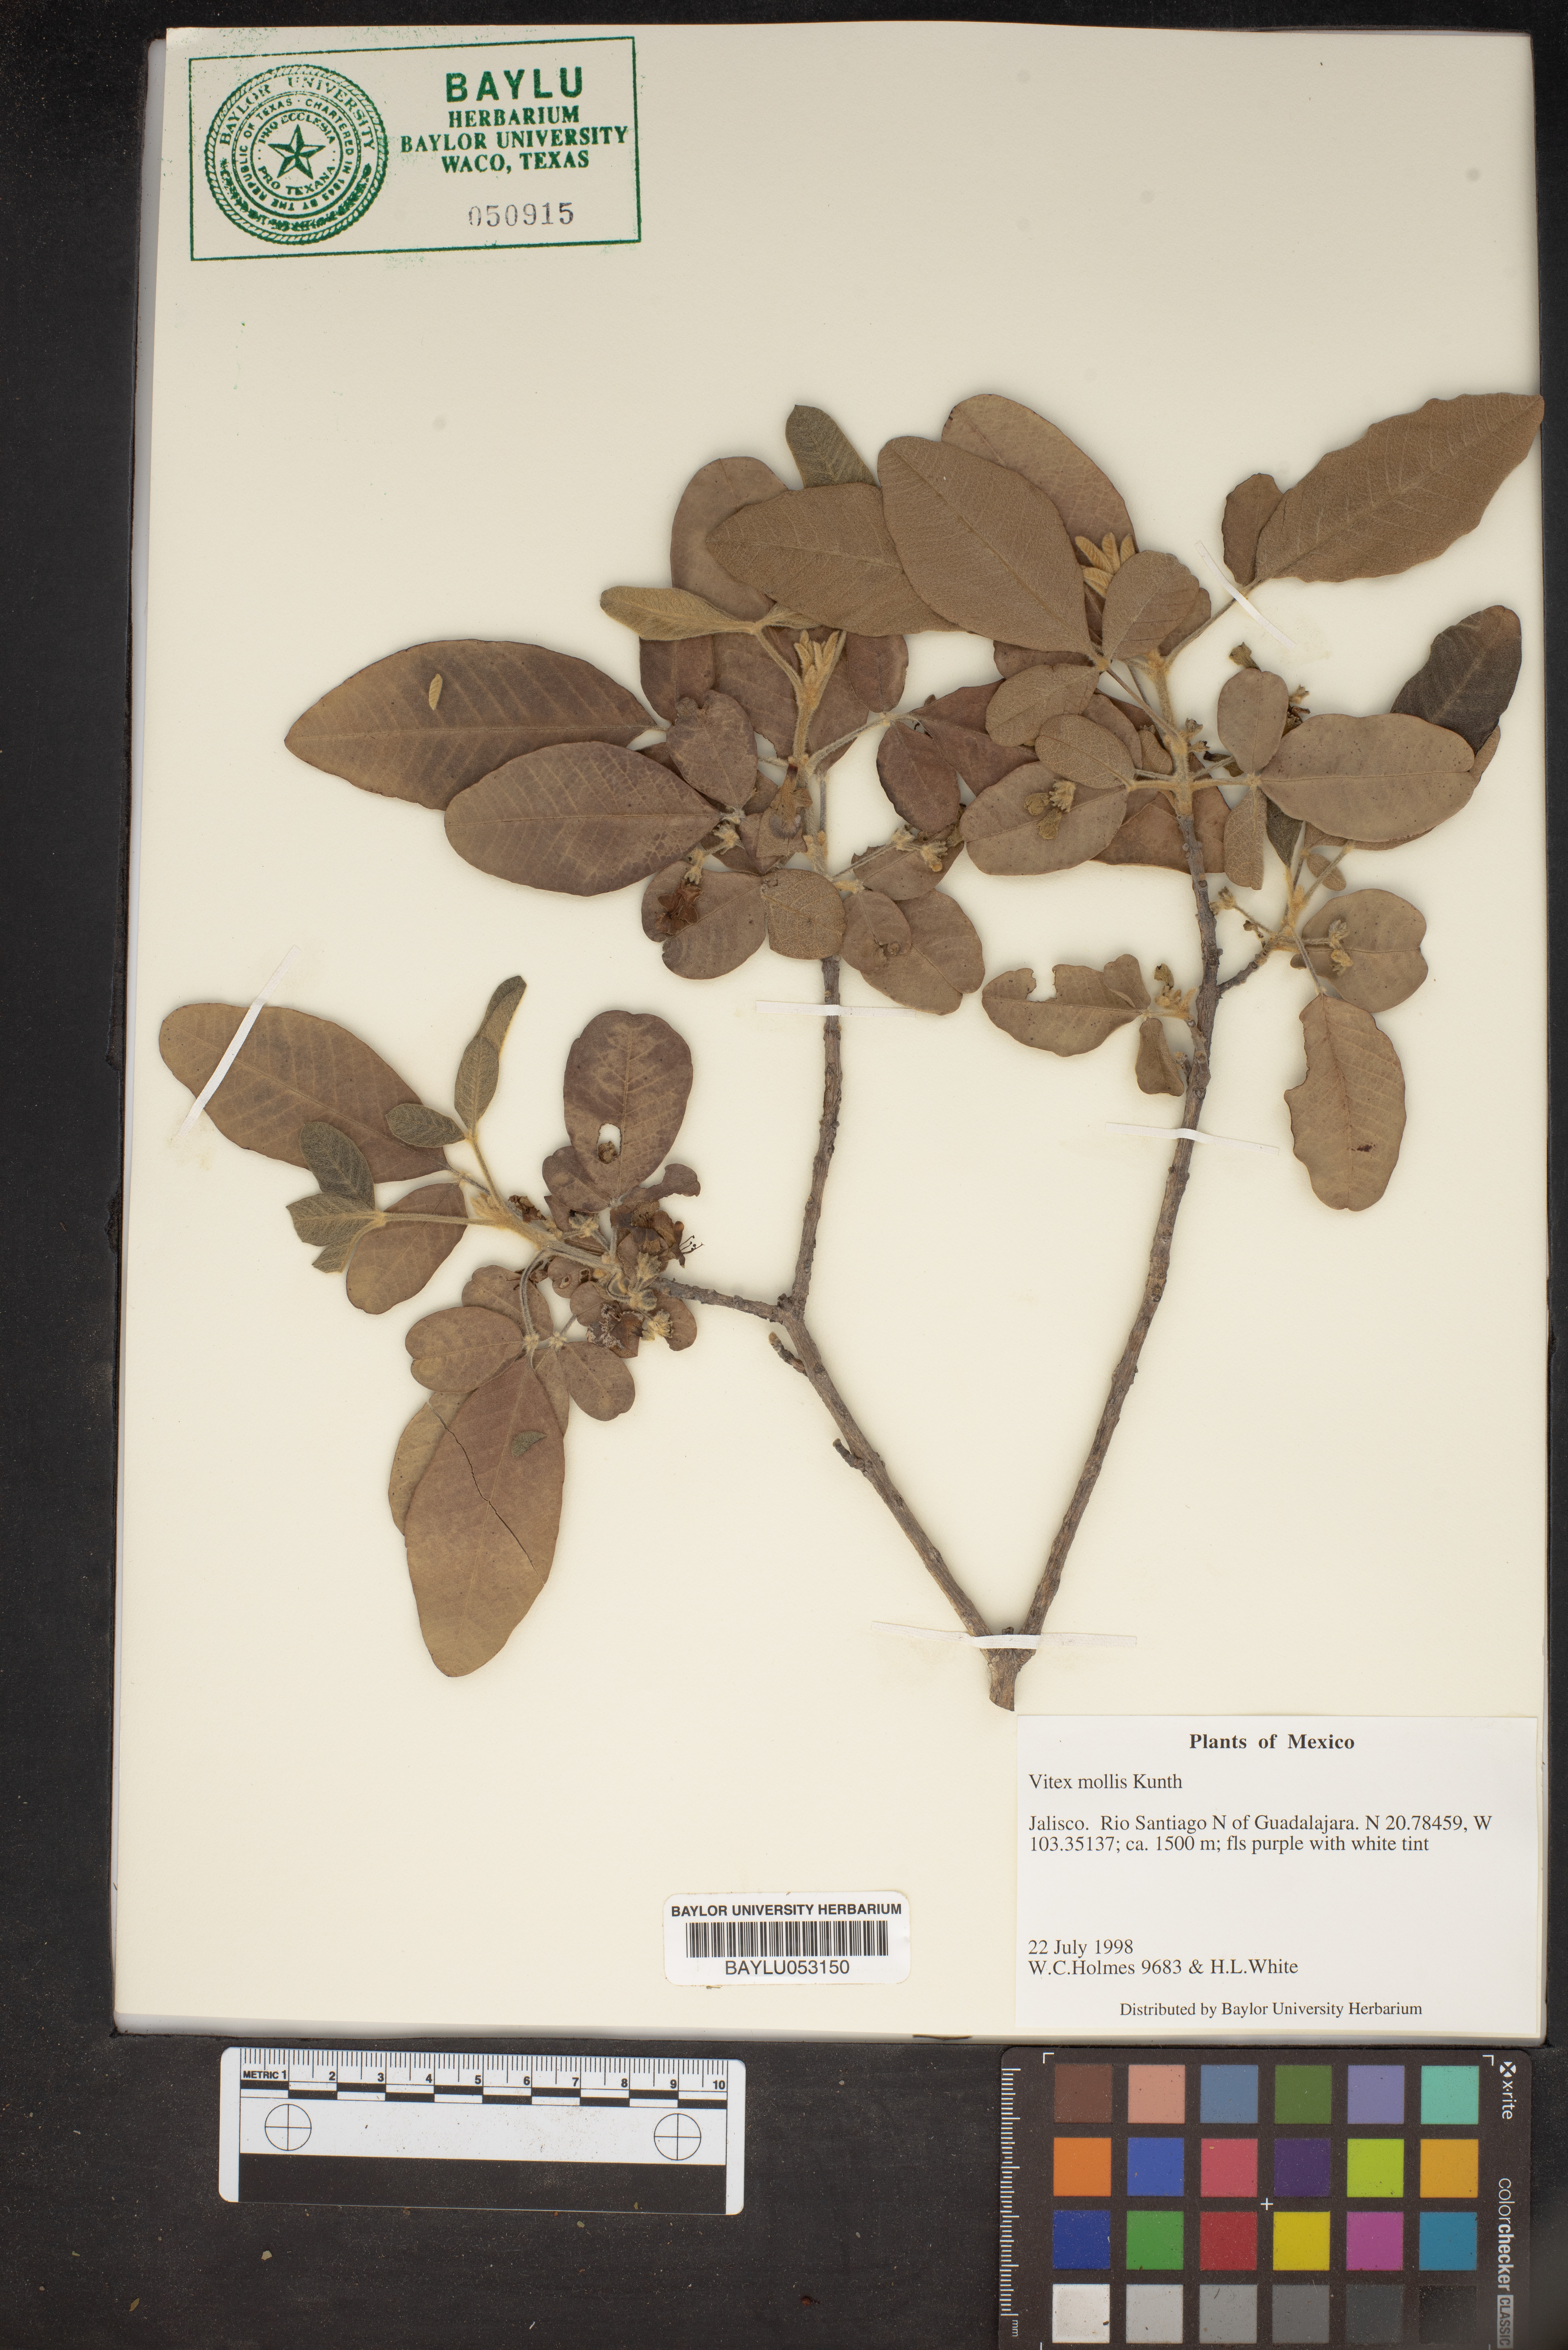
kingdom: Plantae
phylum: Tracheophyta
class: Magnoliopsida
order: Lamiales
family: Lamiaceae
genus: Vitex
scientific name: Vitex mollis
